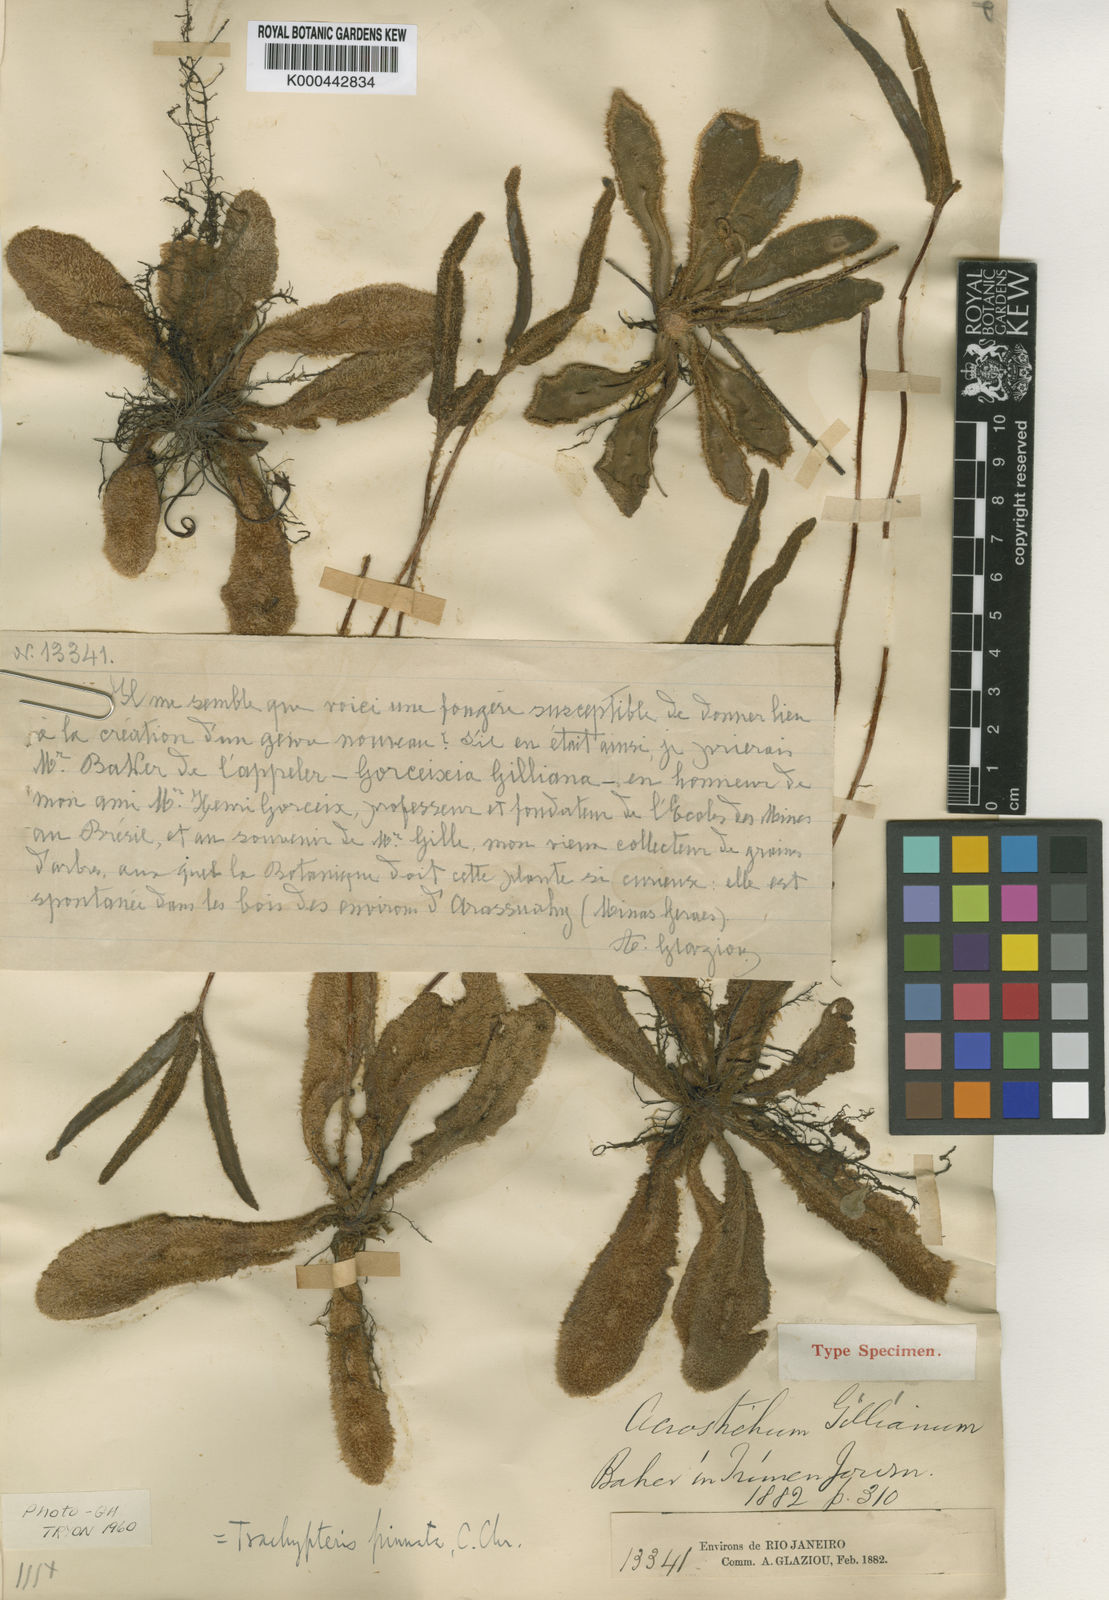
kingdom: Plantae
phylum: Tracheophyta
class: Polypodiopsida
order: Polypodiales
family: Pteridaceae
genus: Trachypteris
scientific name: Trachypteris pinnata
